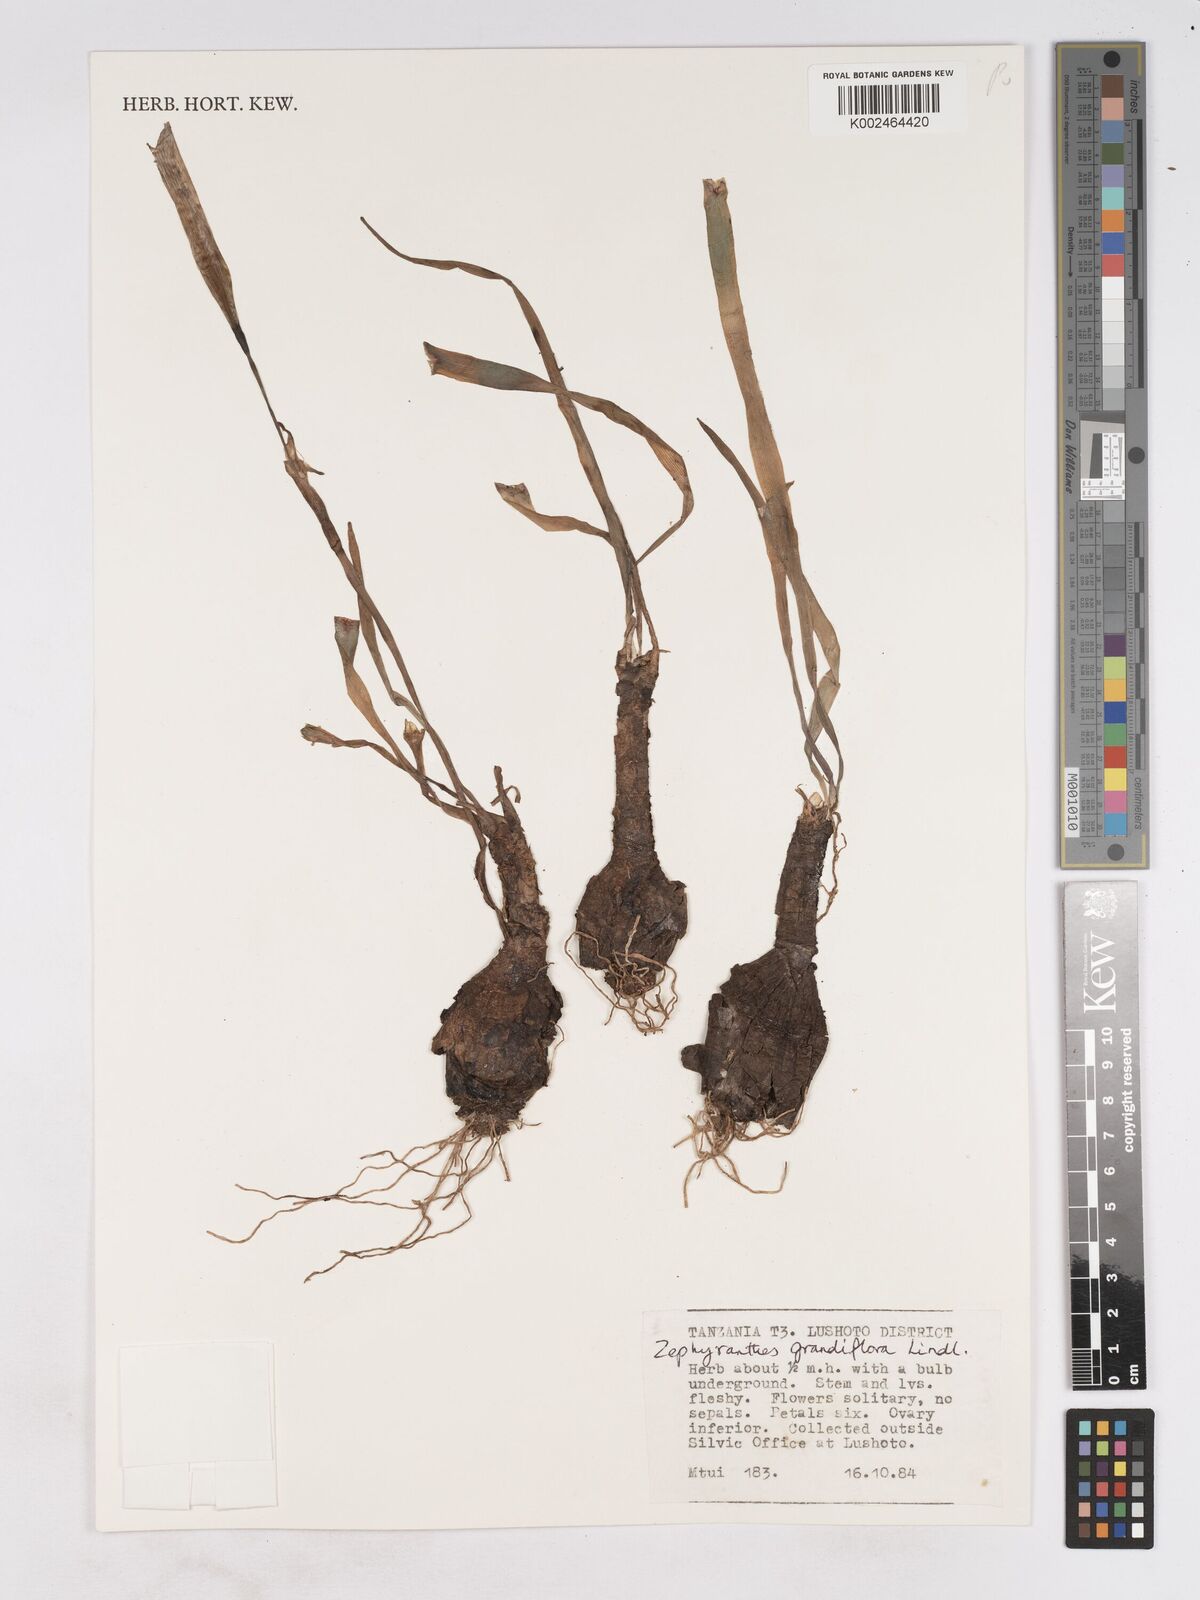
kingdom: Plantae
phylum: Tracheophyta
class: Liliopsida
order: Asparagales
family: Amaryllidaceae
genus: Zephyranthes
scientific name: Zephyranthes minuta
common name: Pink rain lily
